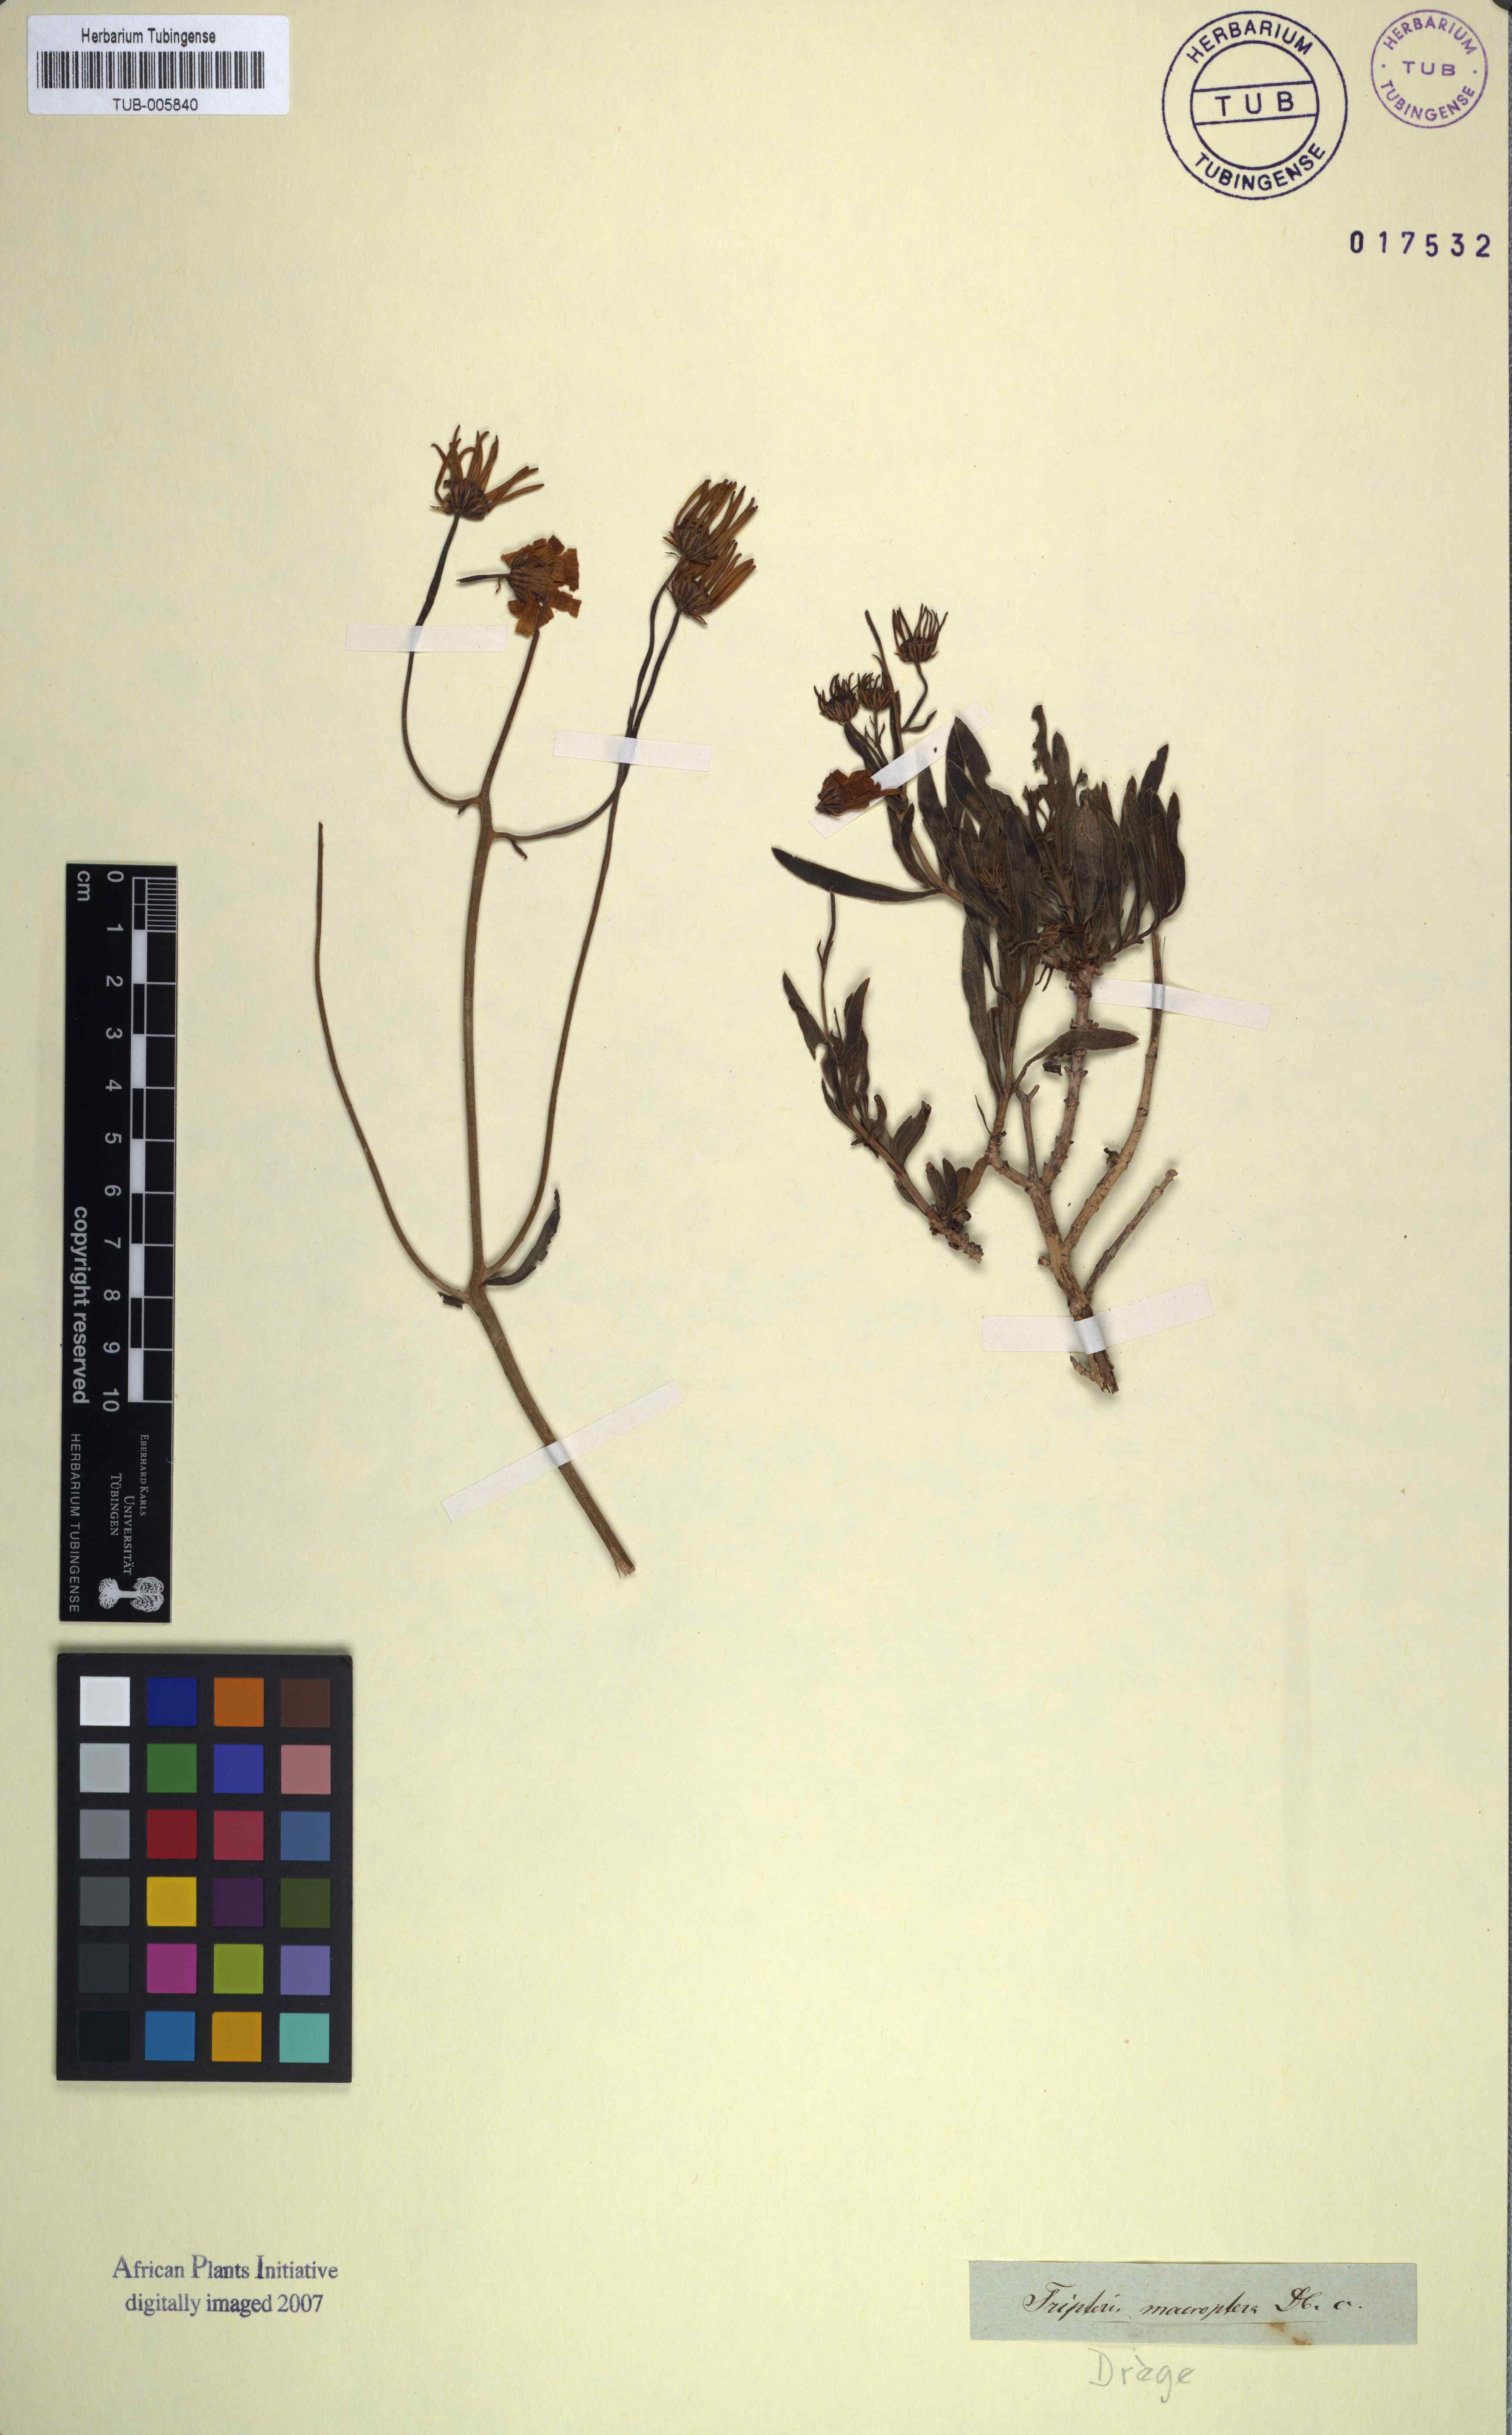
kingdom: Plantae
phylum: Tracheophyta
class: Magnoliopsida
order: Asterales
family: Asteraceae
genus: Osteospermum
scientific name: Osteospermum oppositifolium
